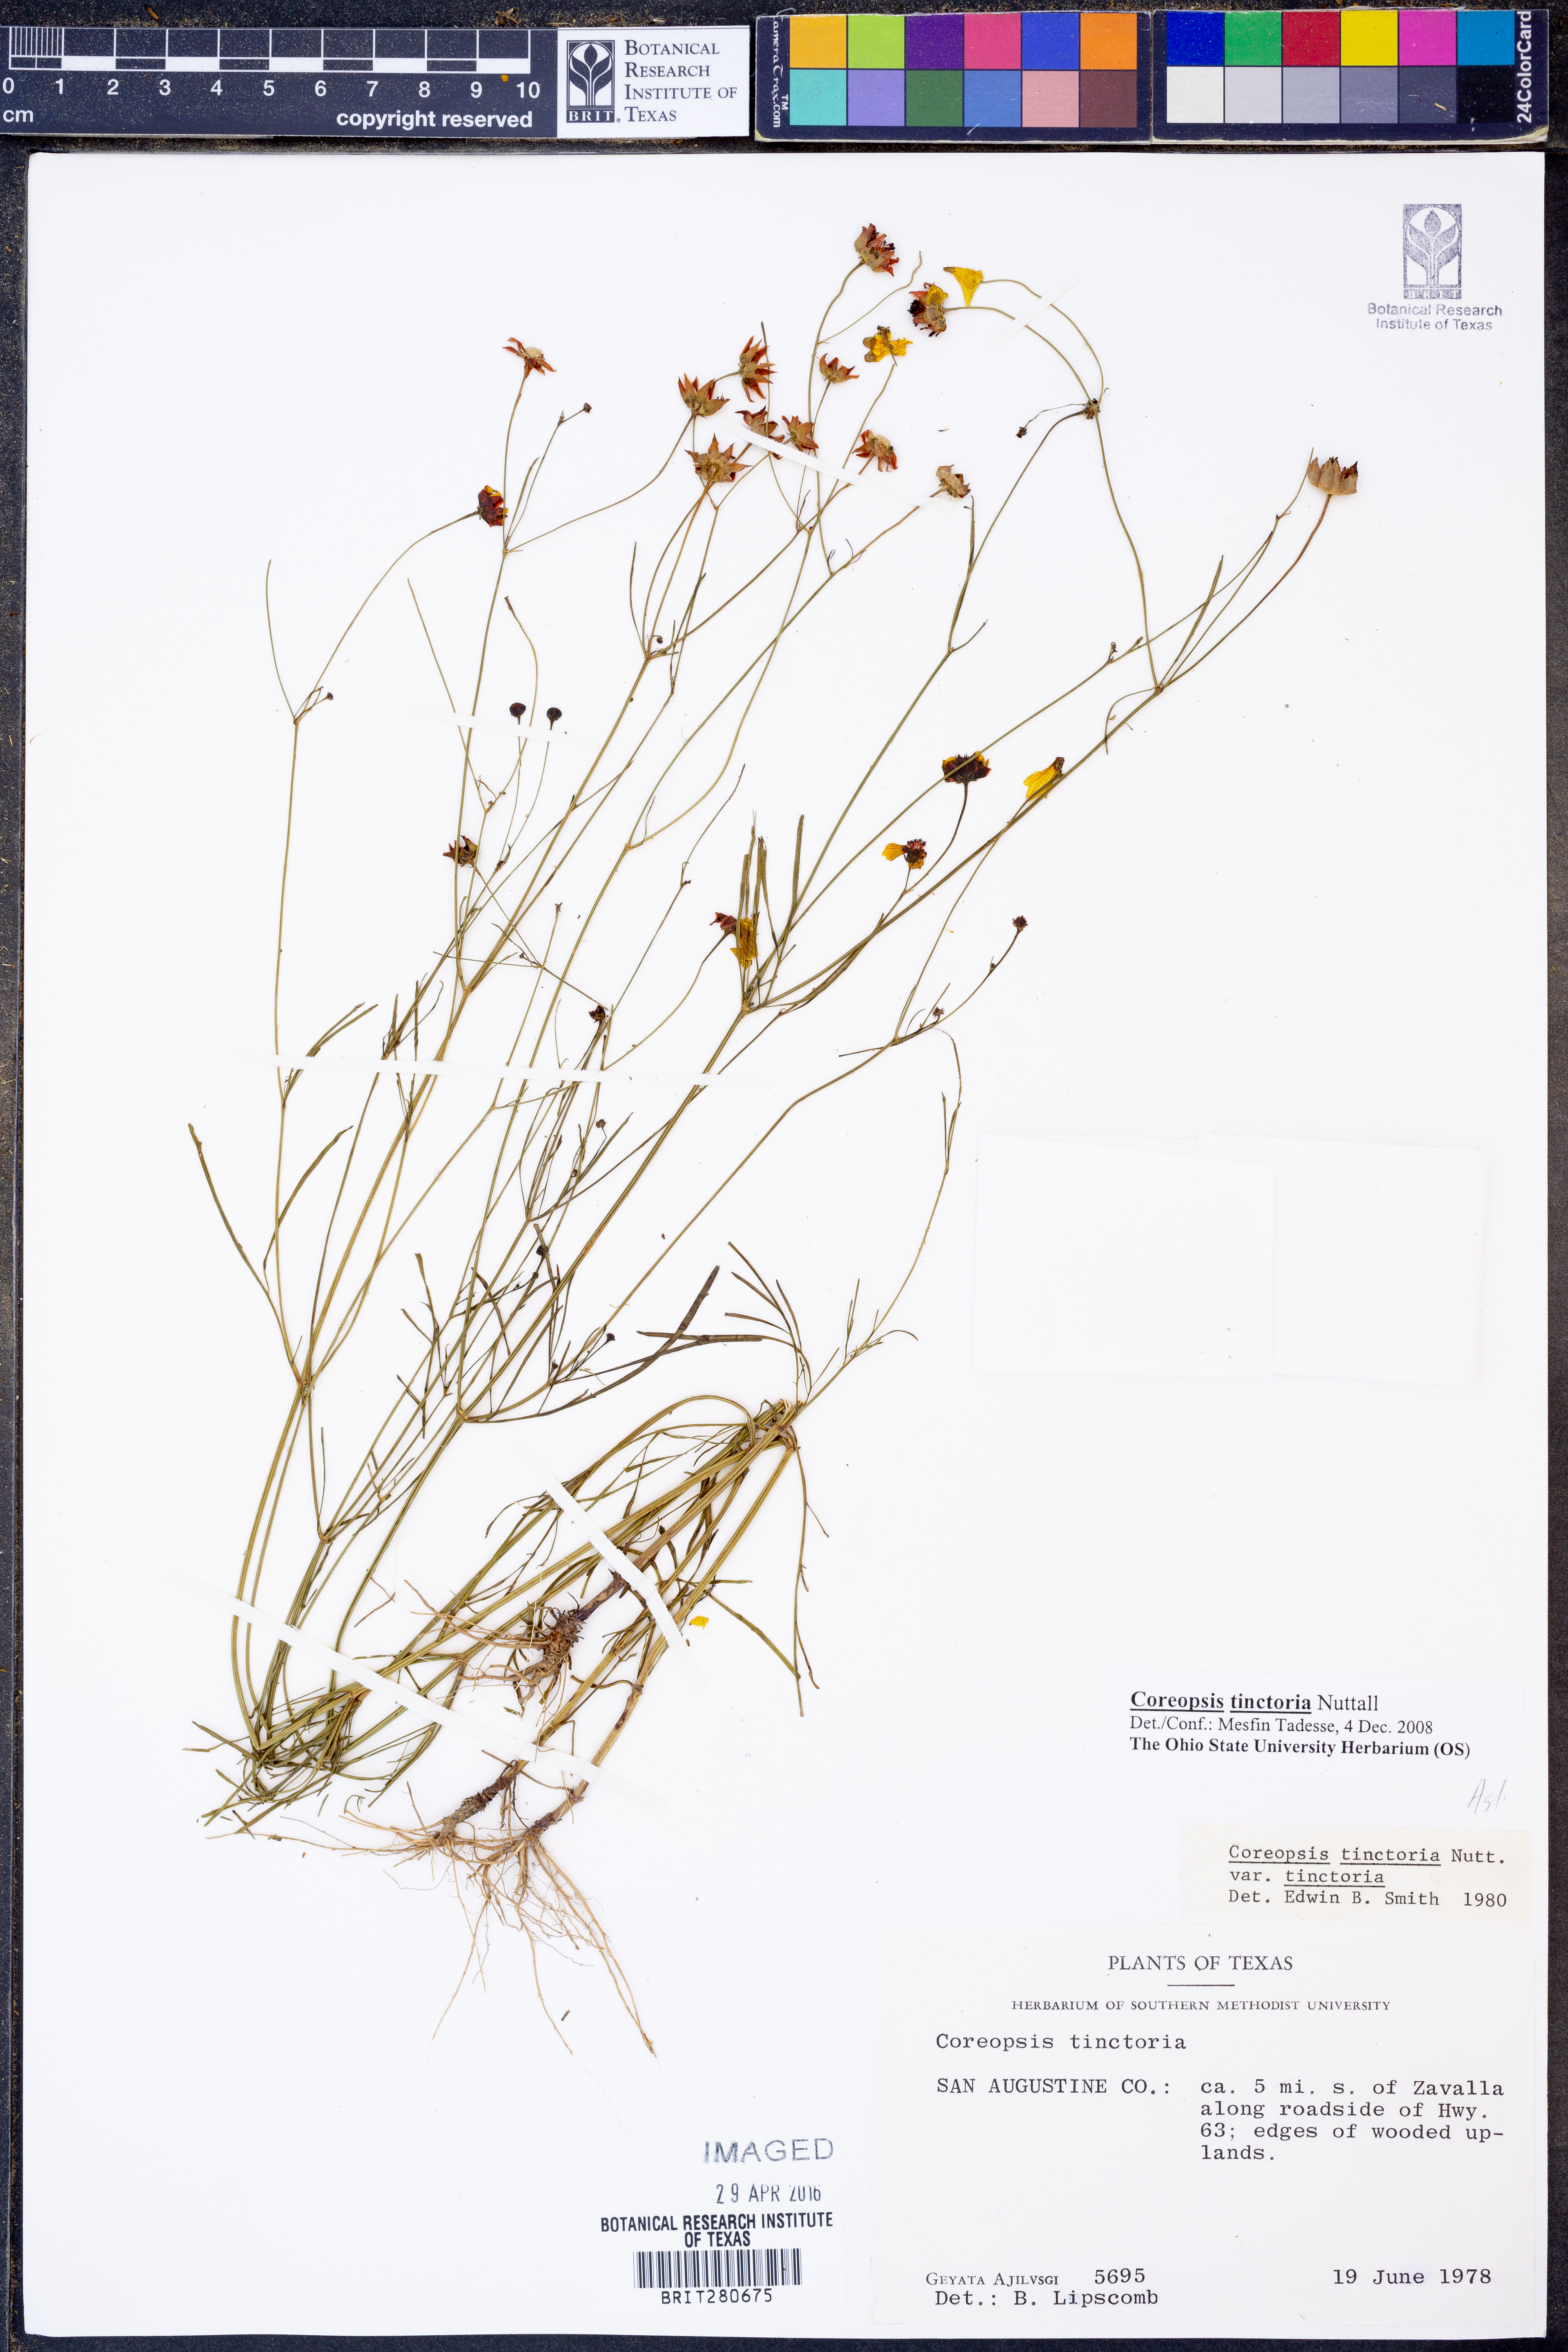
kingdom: Plantae
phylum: Tracheophyta
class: Magnoliopsida
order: Asterales
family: Asteraceae
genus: Coreopsis
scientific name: Coreopsis tinctoria
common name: Garden tickseed
